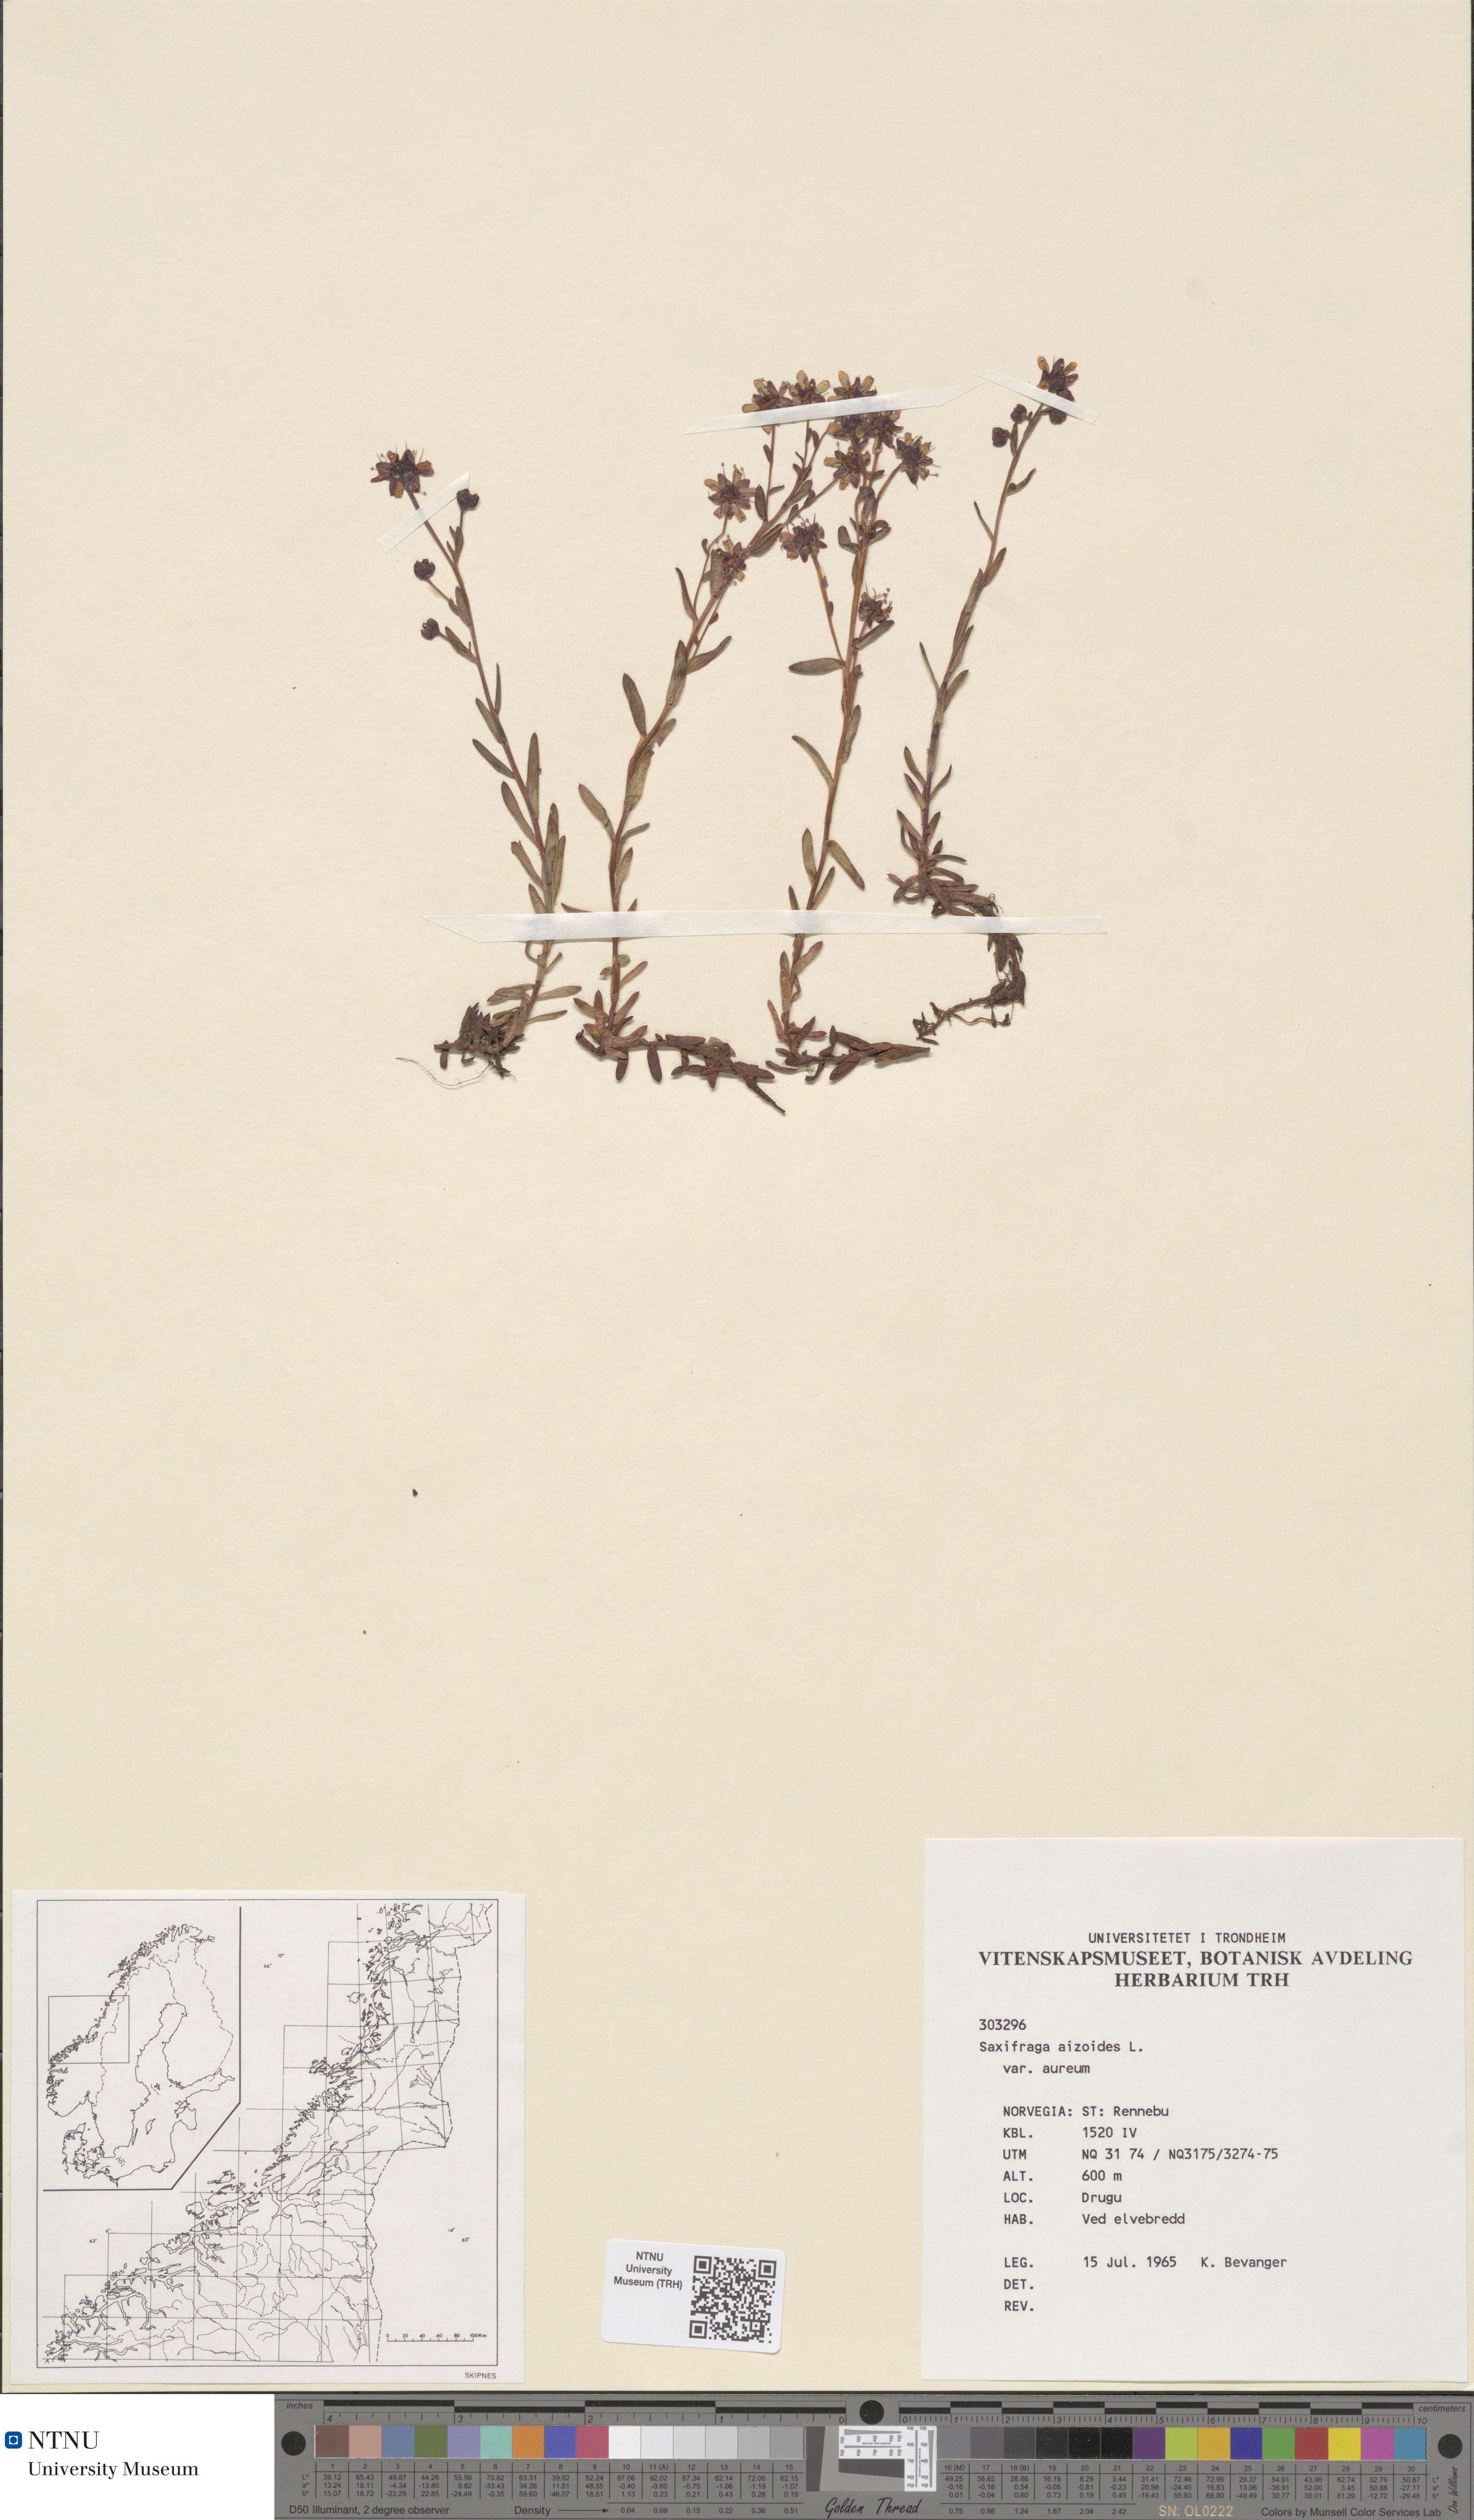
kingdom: Plantae
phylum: Tracheophyta
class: Magnoliopsida
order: Saxifragales
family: Saxifragaceae
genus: Saxifraga
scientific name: Saxifraga aizoides
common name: Yellow mountain saxifrage
